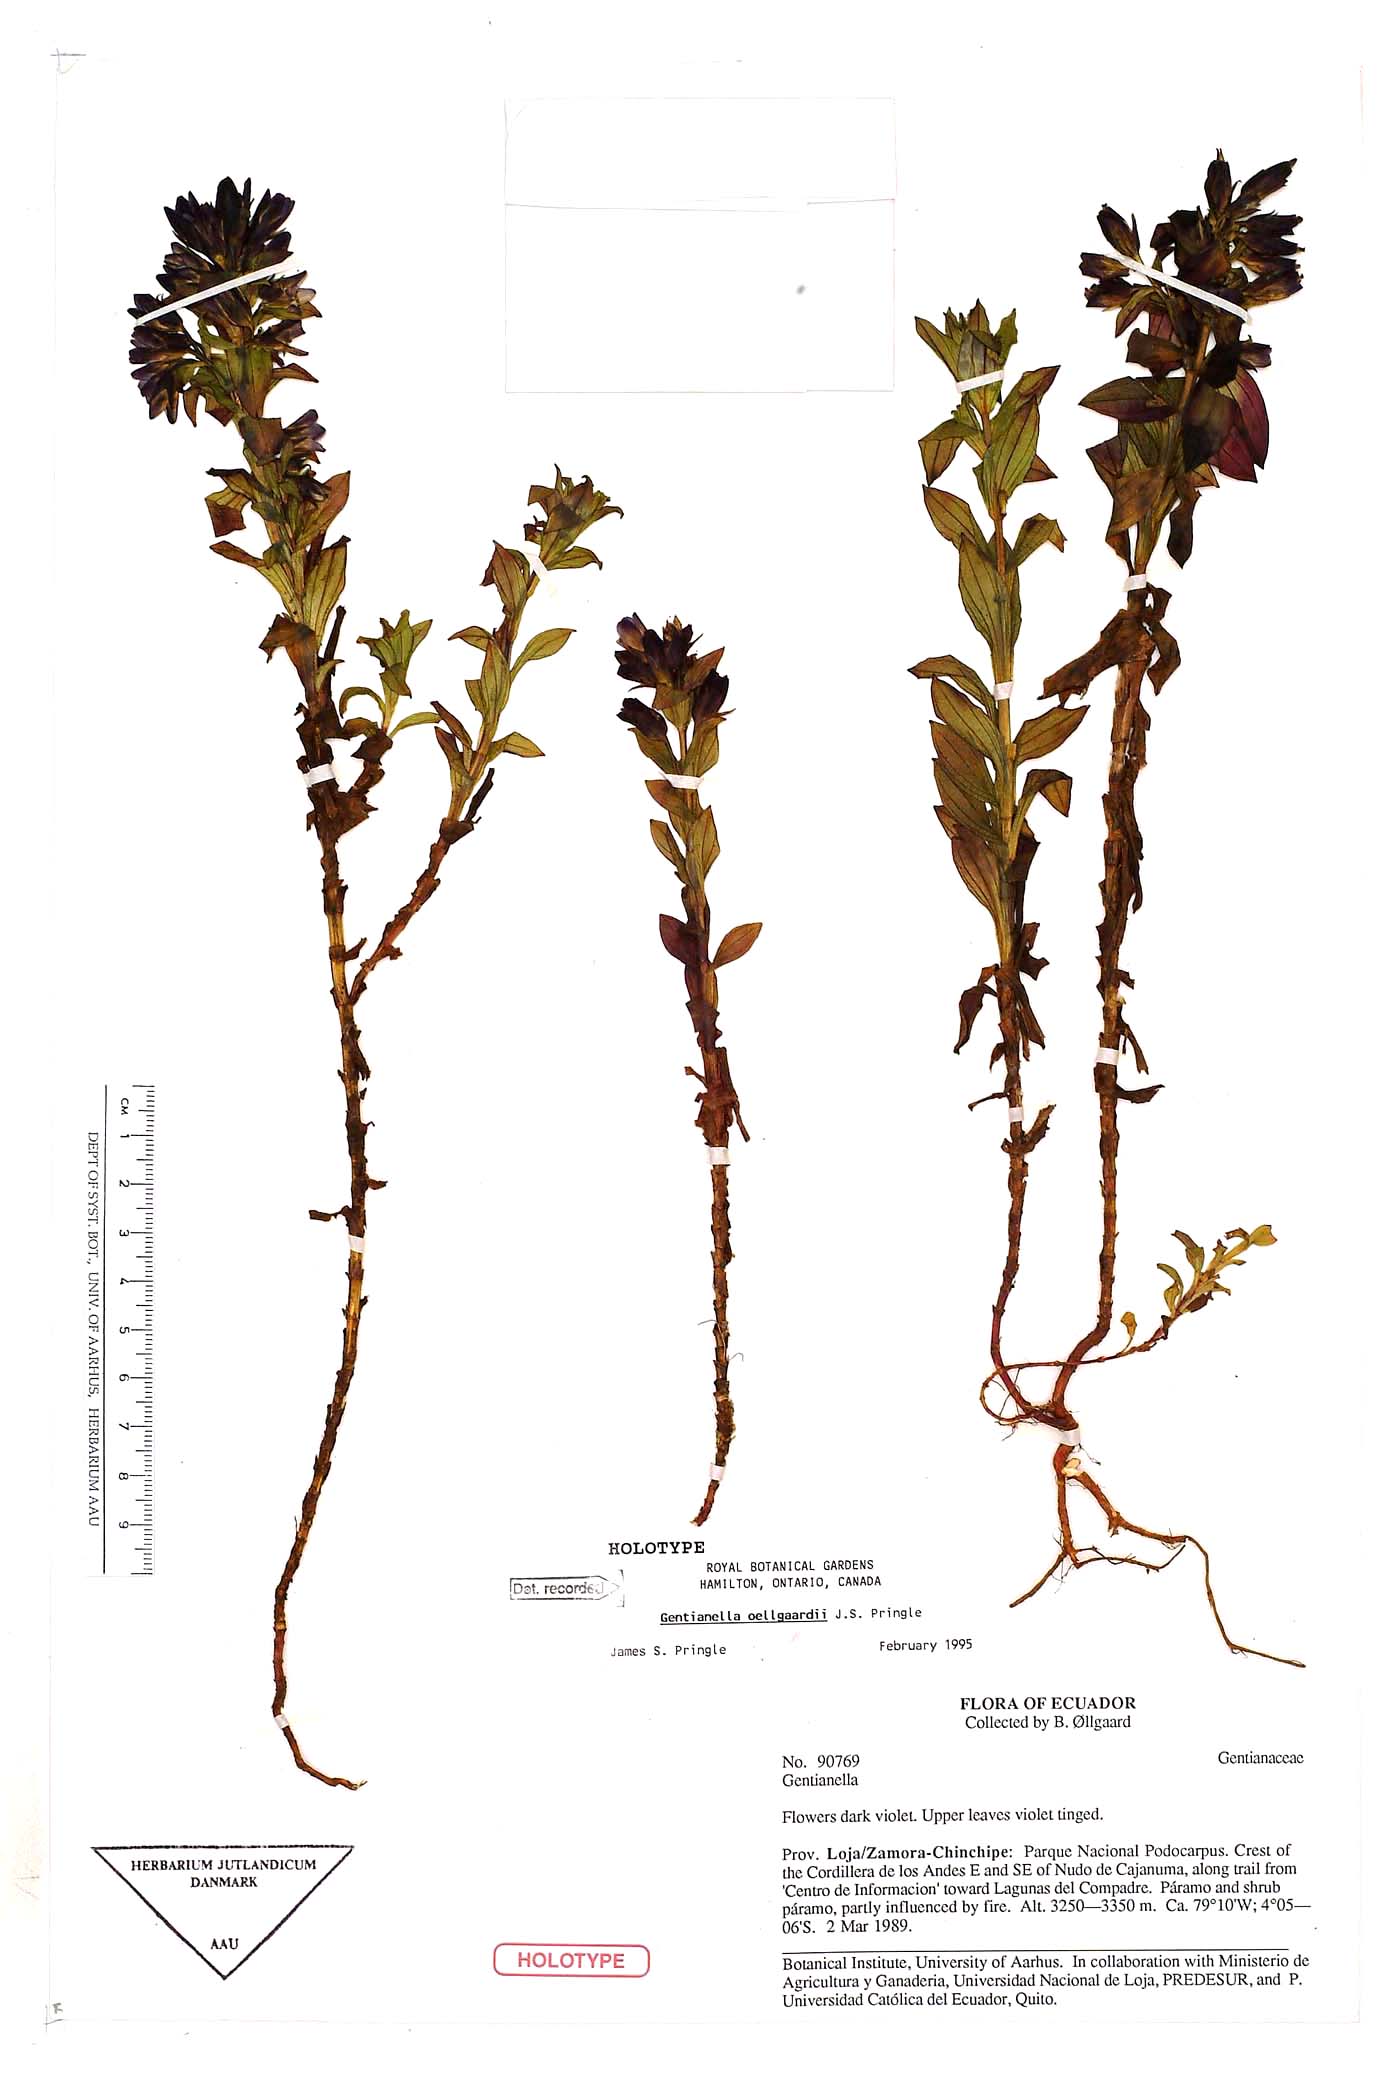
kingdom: Plantae
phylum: Tracheophyta
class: Magnoliopsida
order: Gentianales
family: Gentianaceae
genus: Gentianella
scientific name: Gentianella oellgaardii
